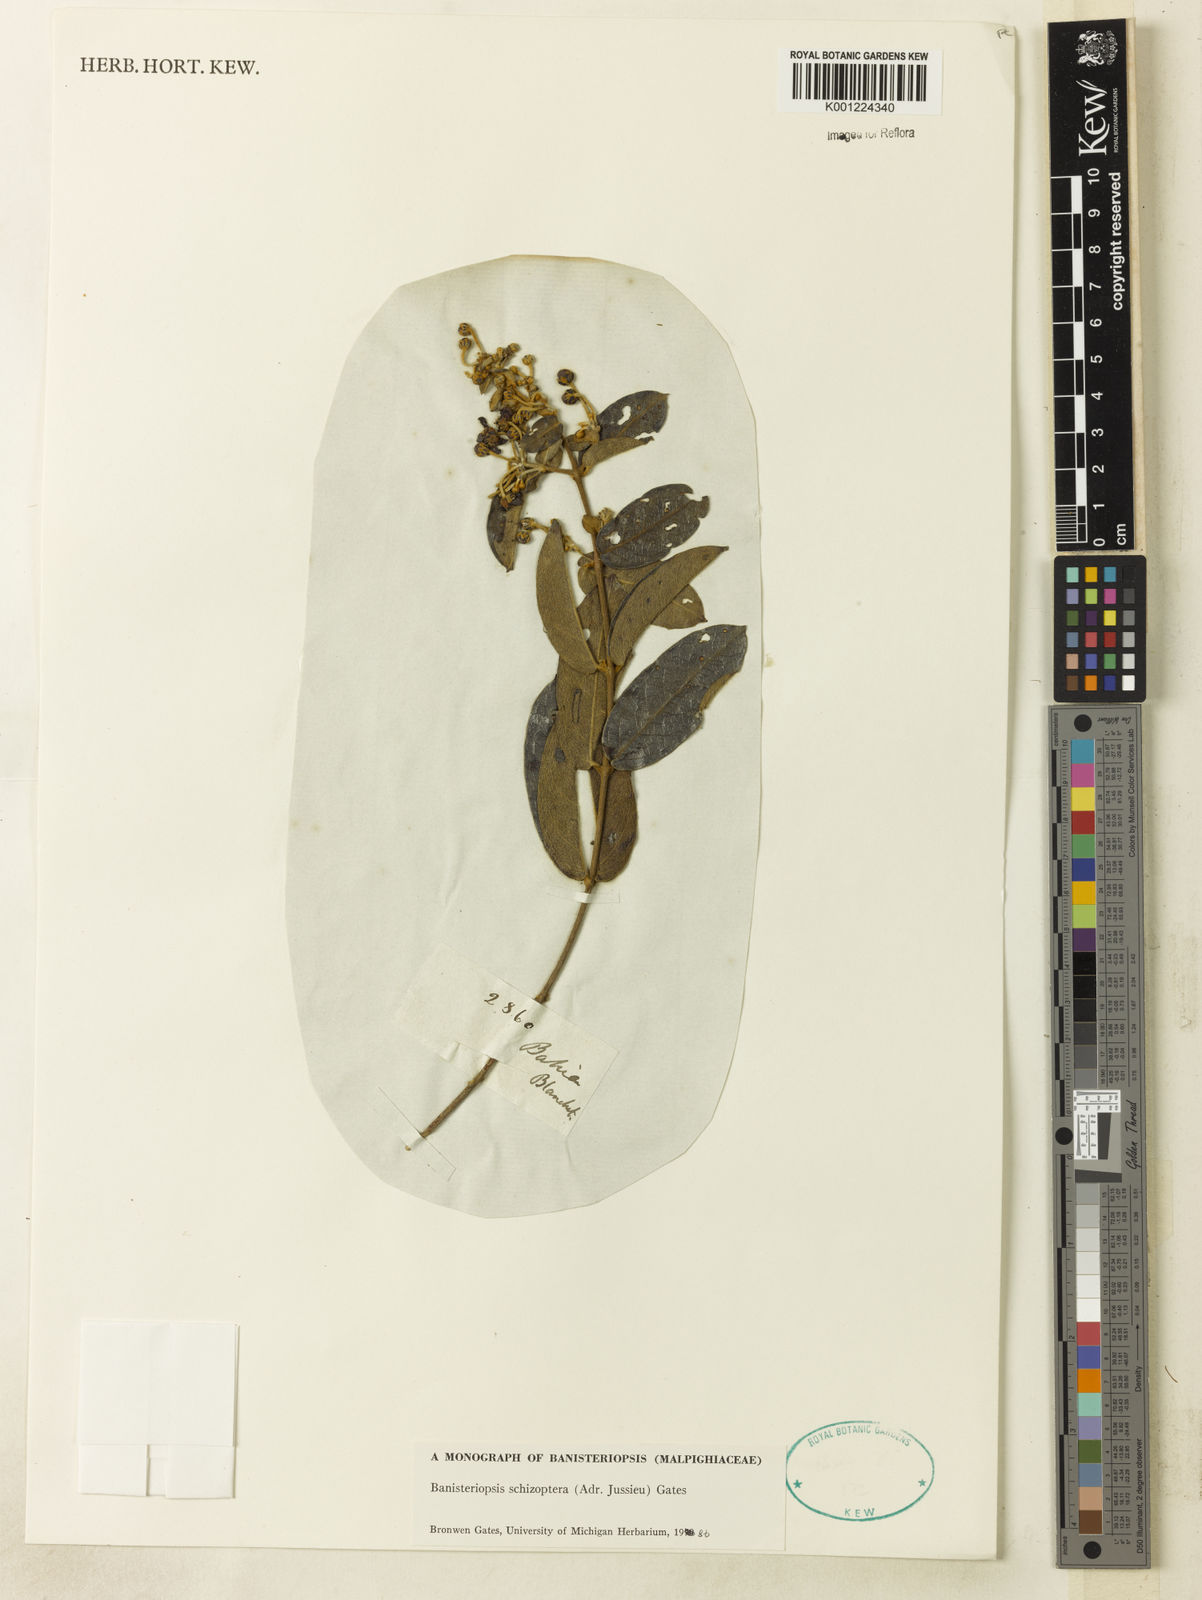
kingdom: Plantae
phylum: Tracheophyta
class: Magnoliopsida
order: Malpighiales
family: Malpighiaceae
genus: Banisteriopsis
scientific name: Banisteriopsis schizoptera
